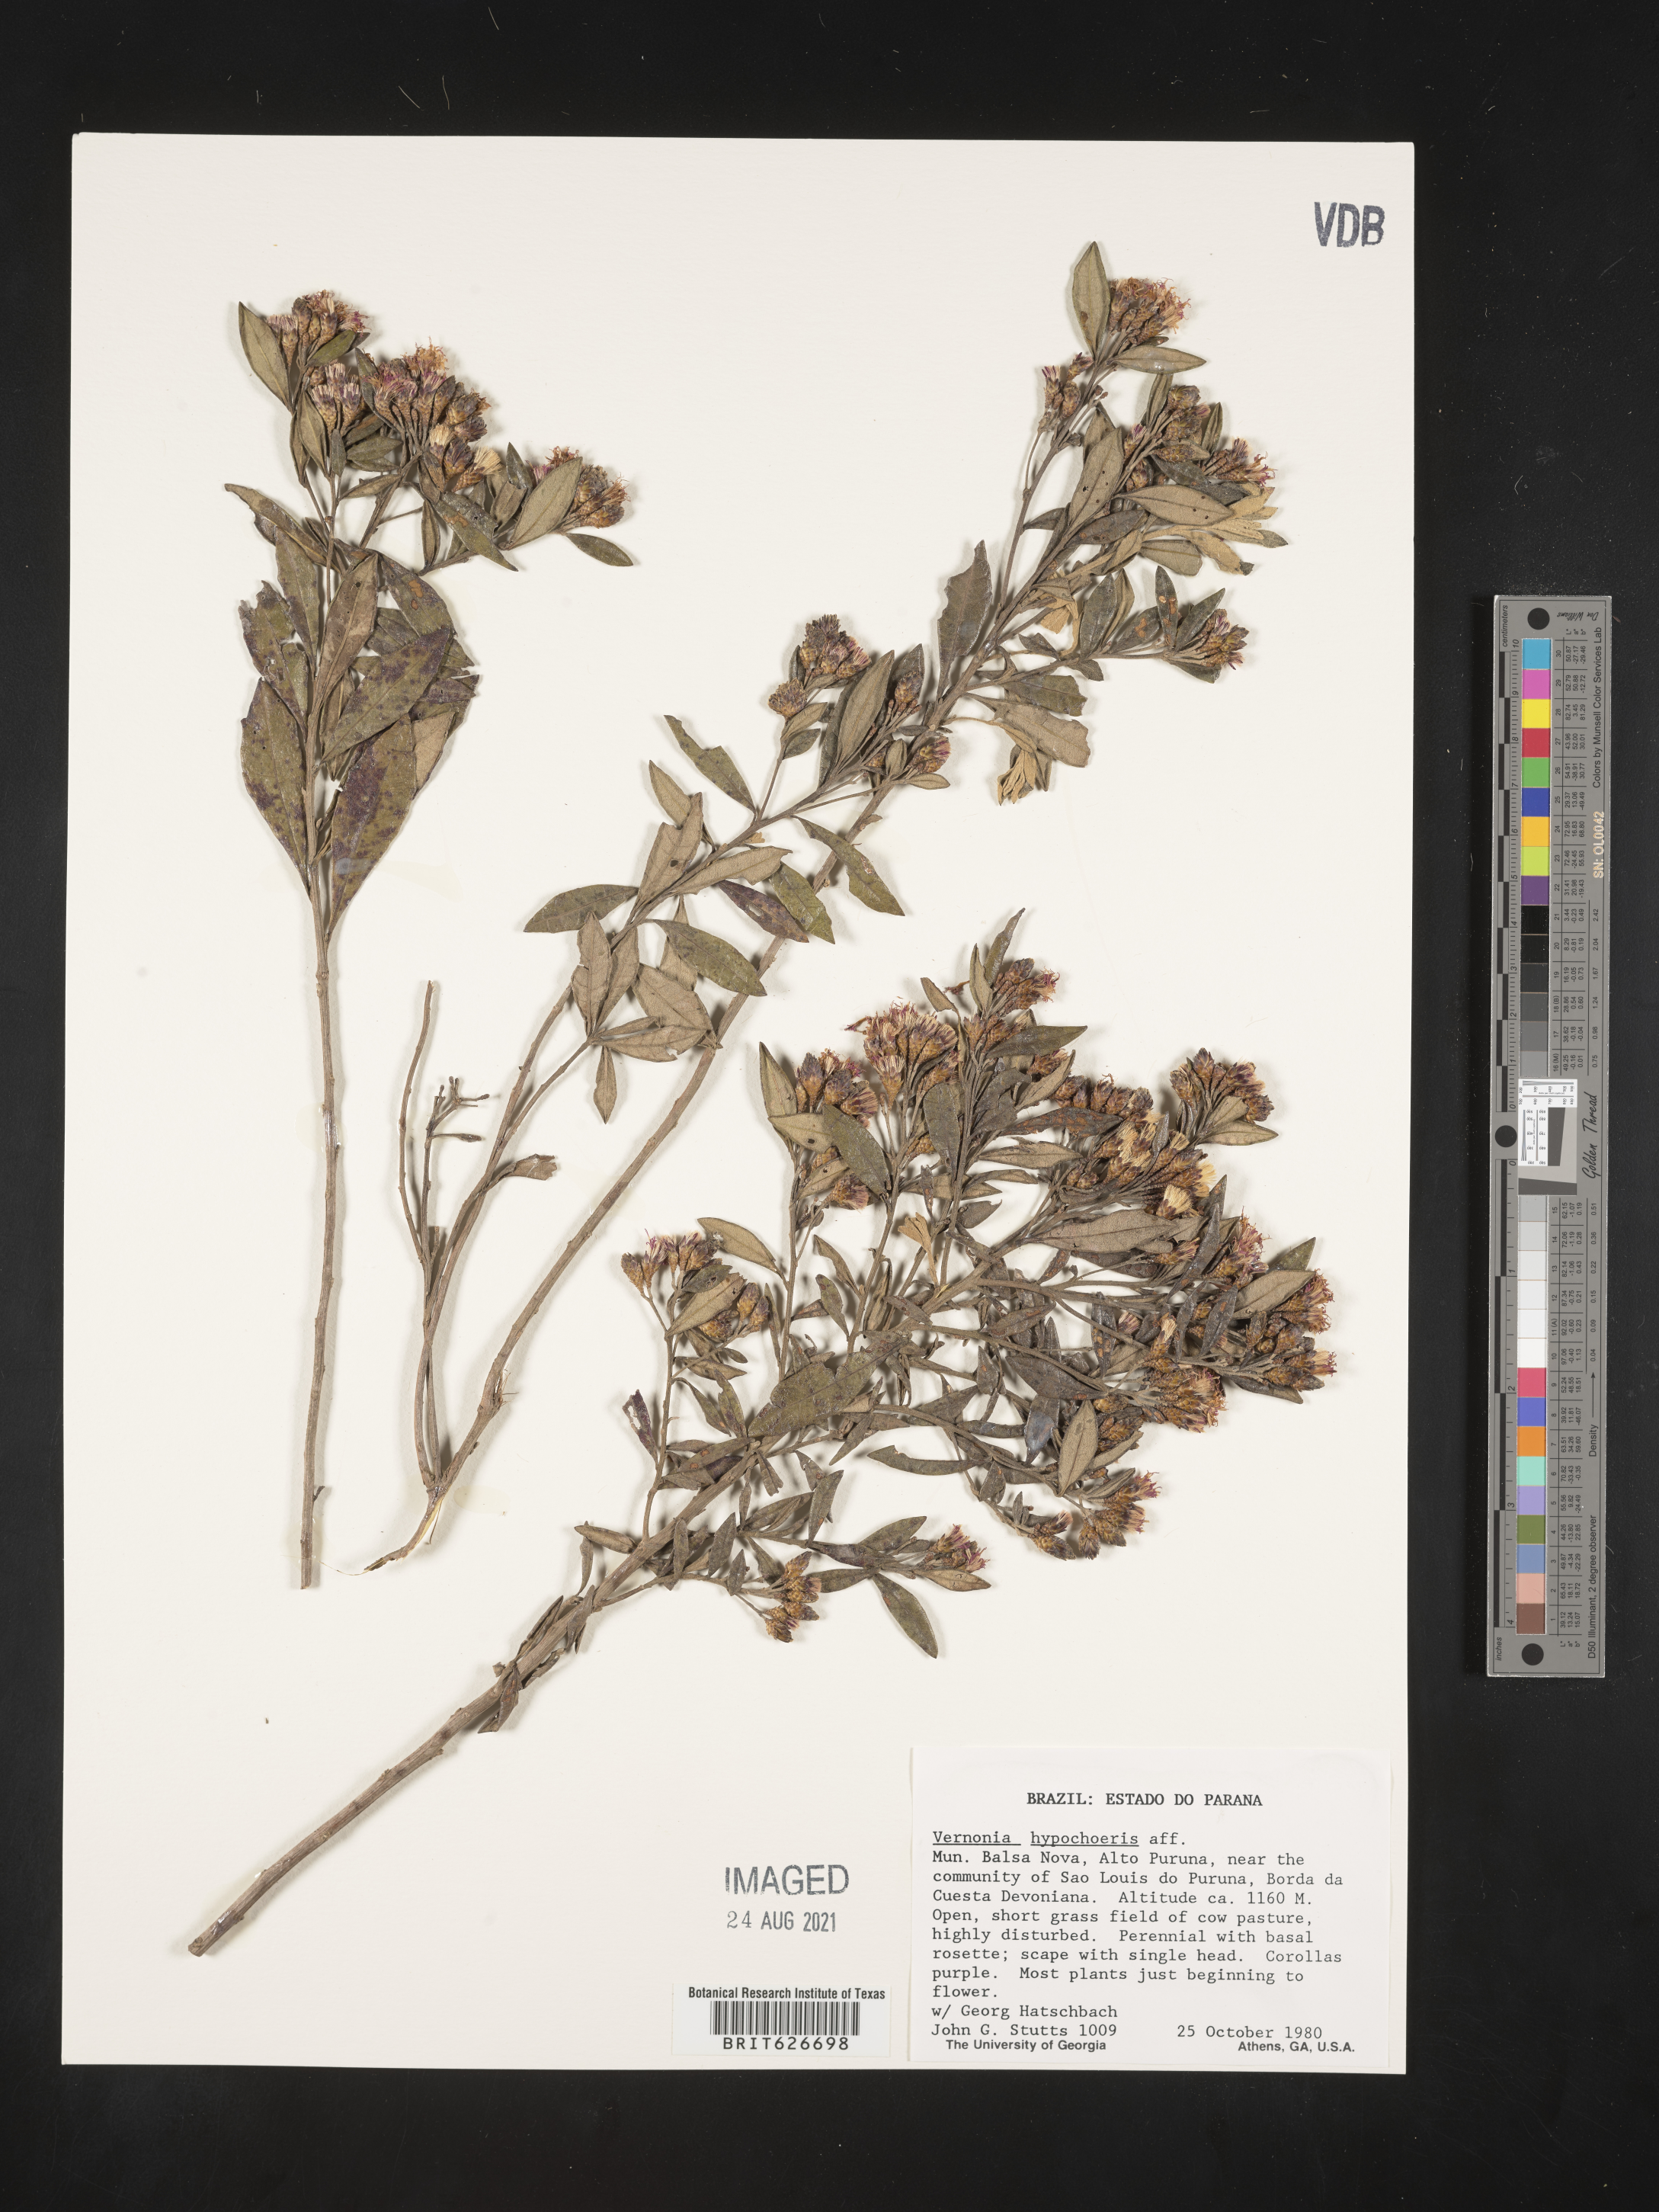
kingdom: Plantae
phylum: Tracheophyta
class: Magnoliopsida
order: Asterales
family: Asteraceae
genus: Lessingianthus
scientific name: Lessingianthus hypochaeris
